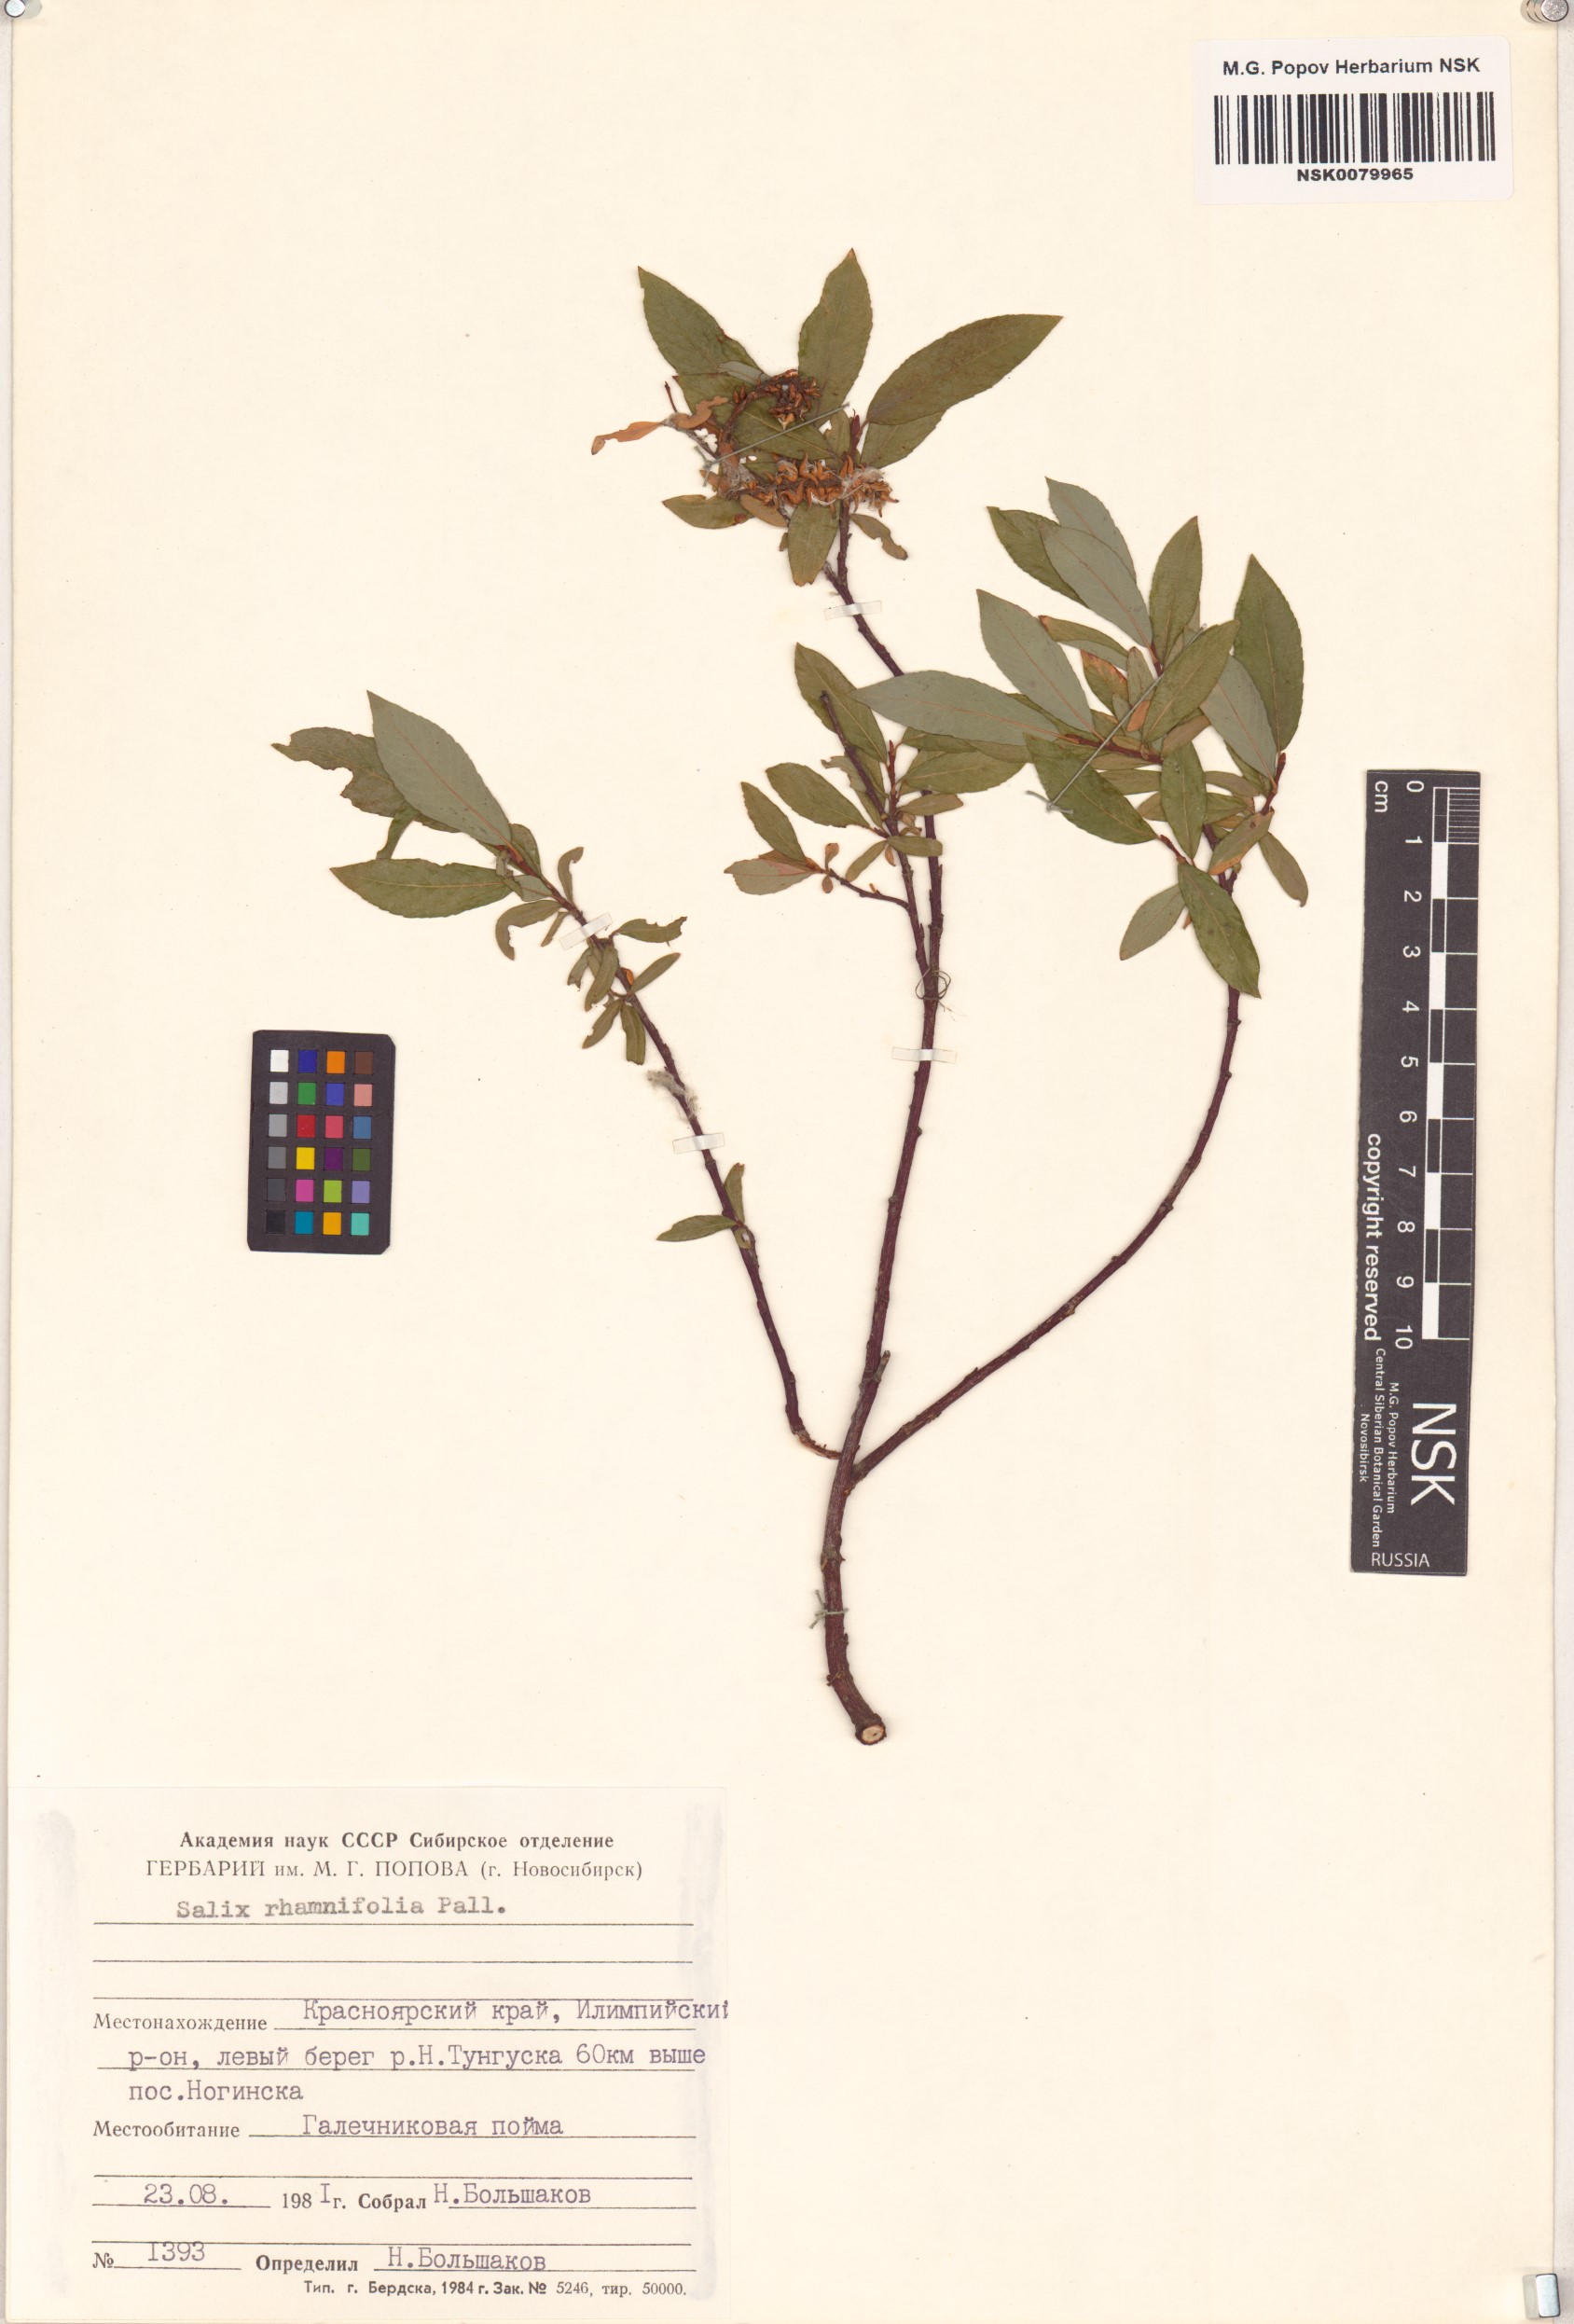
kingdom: Plantae
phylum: Tracheophyta
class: Magnoliopsida
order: Malpighiales
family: Salicaceae
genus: Salix
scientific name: Salix rhamnifolia
